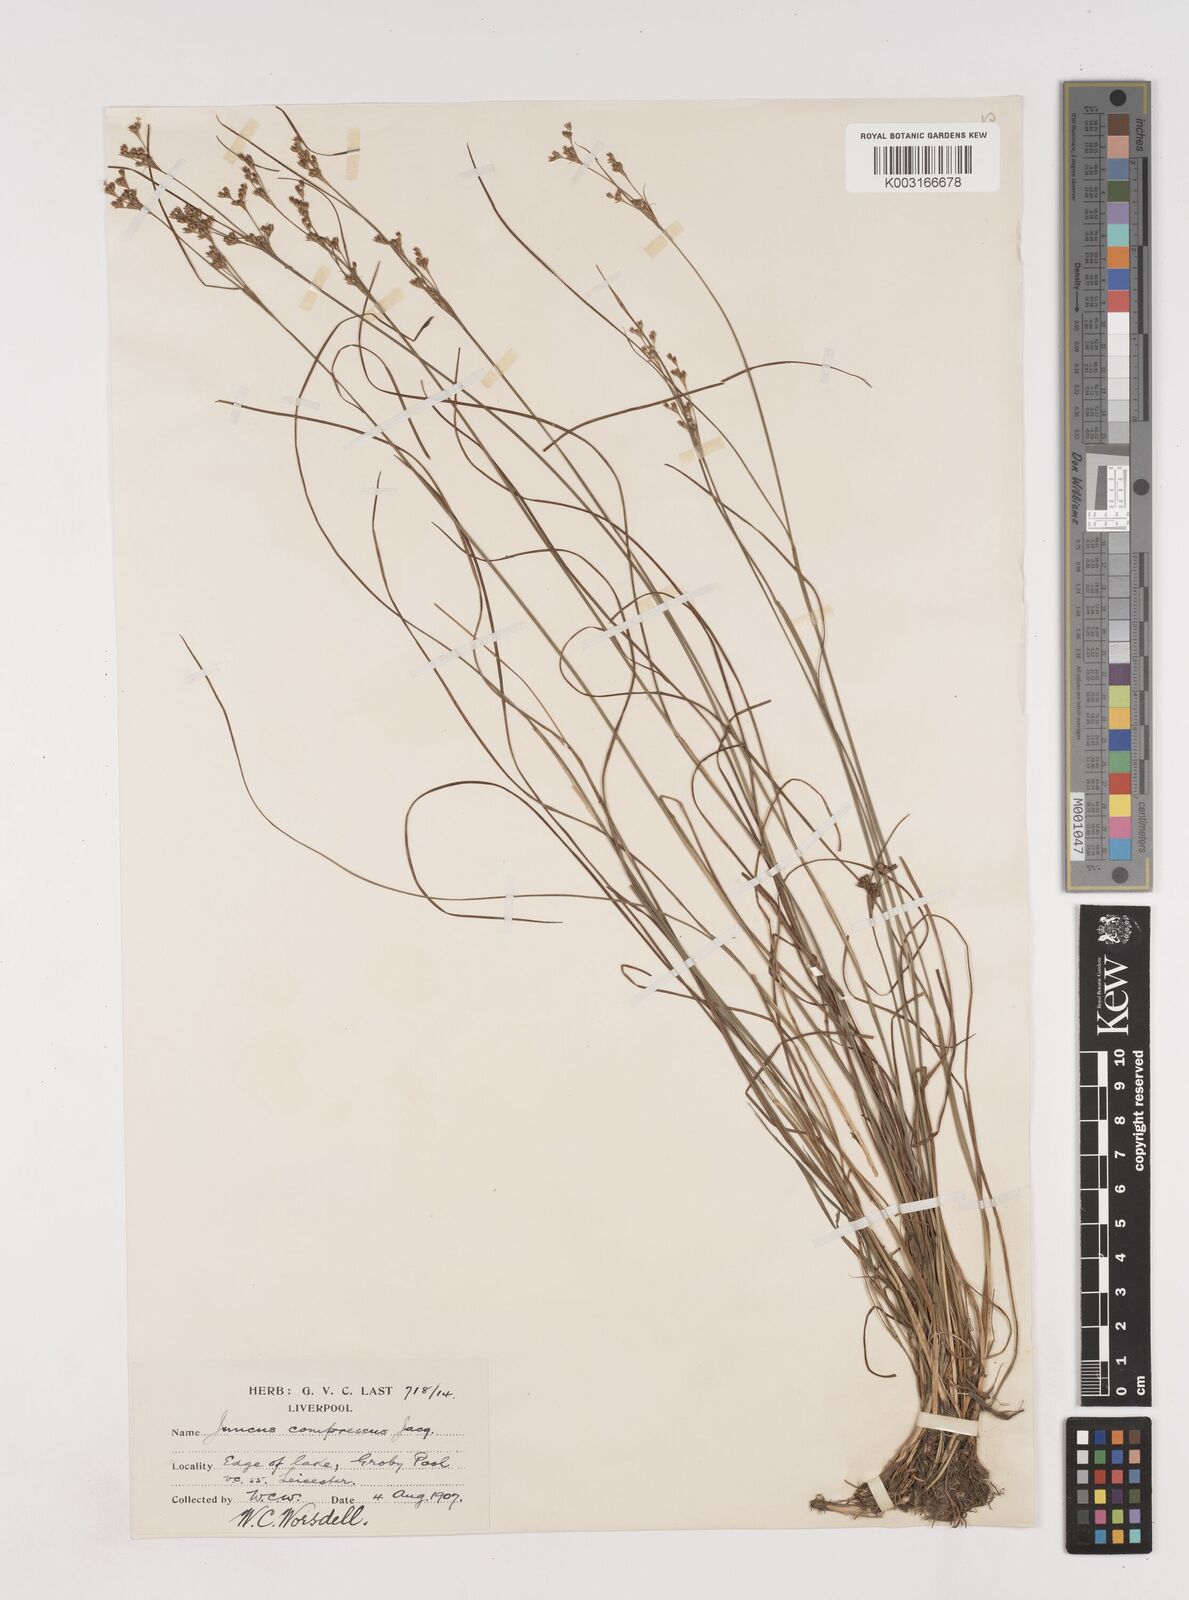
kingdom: Plantae
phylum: Tracheophyta
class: Liliopsida
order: Poales
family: Juncaceae
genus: Juncus
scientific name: Juncus compressus
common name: Round-fruited rush
